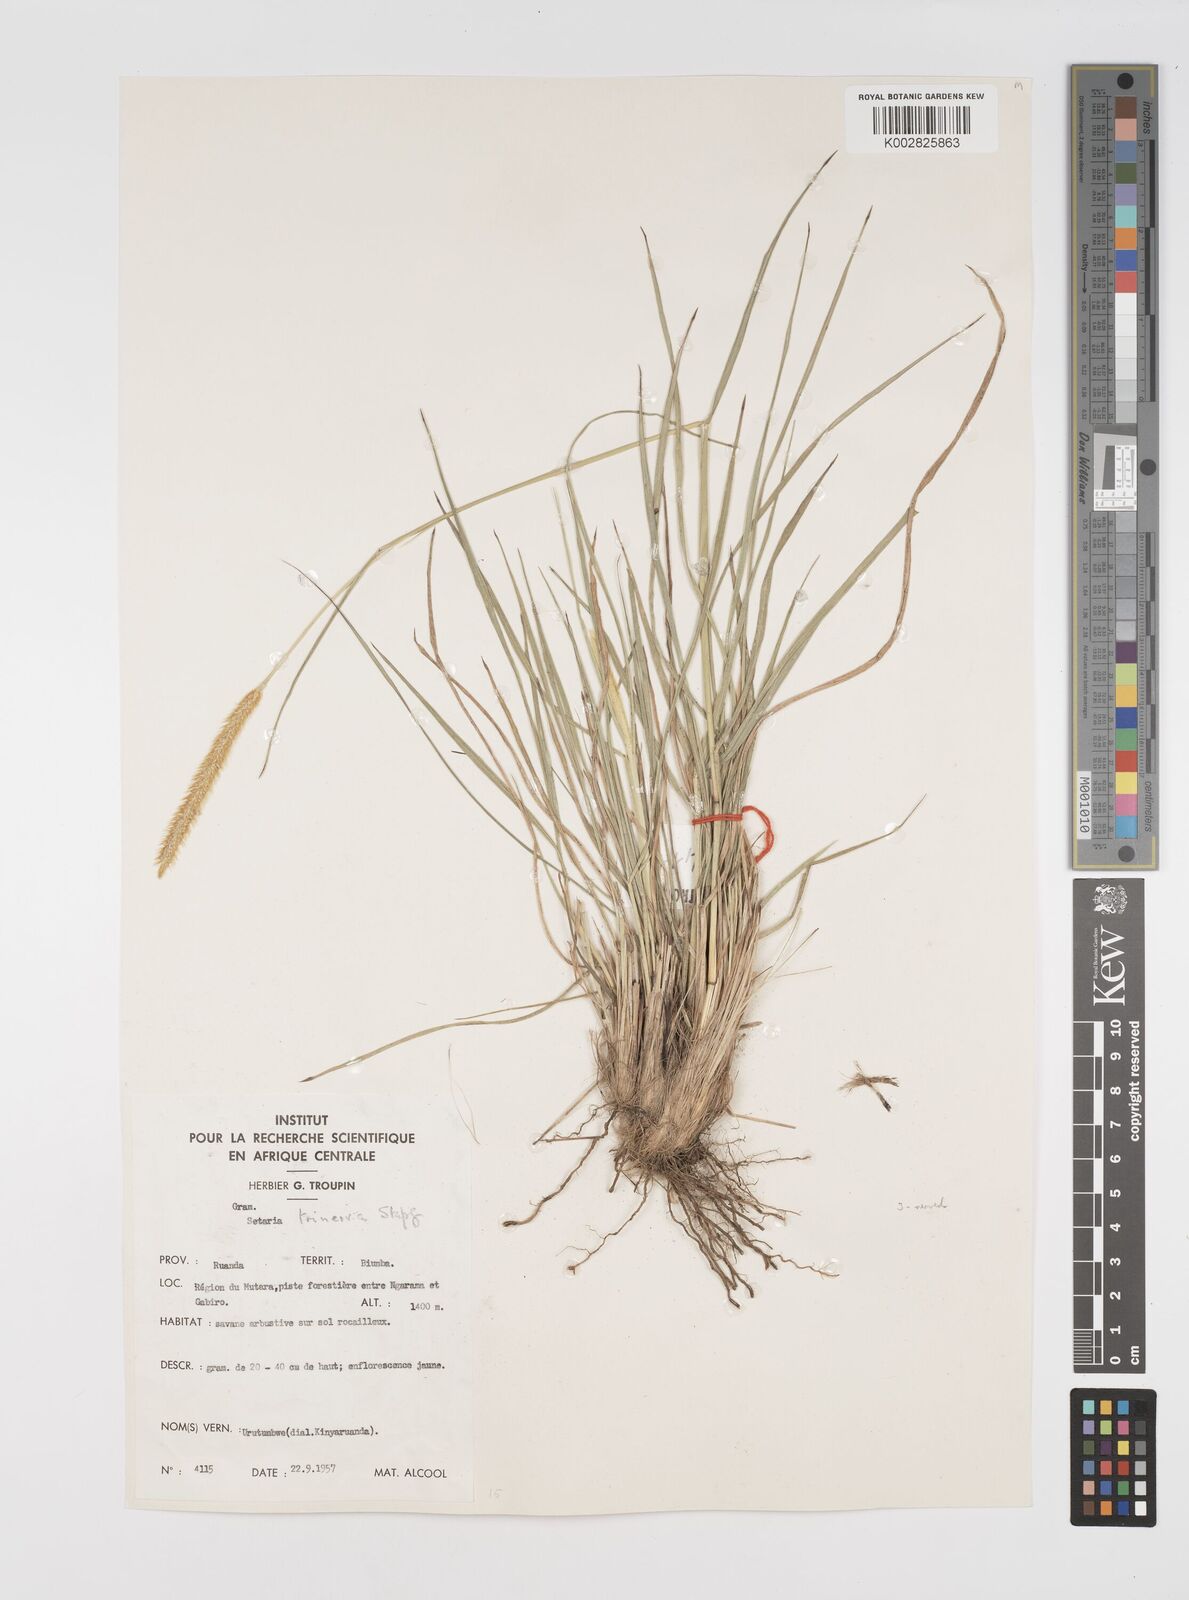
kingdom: Plantae
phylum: Tracheophyta
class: Liliopsida
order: Poales
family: Poaceae
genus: Setaria
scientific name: Setaria sphacelata
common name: African bristlegrass
